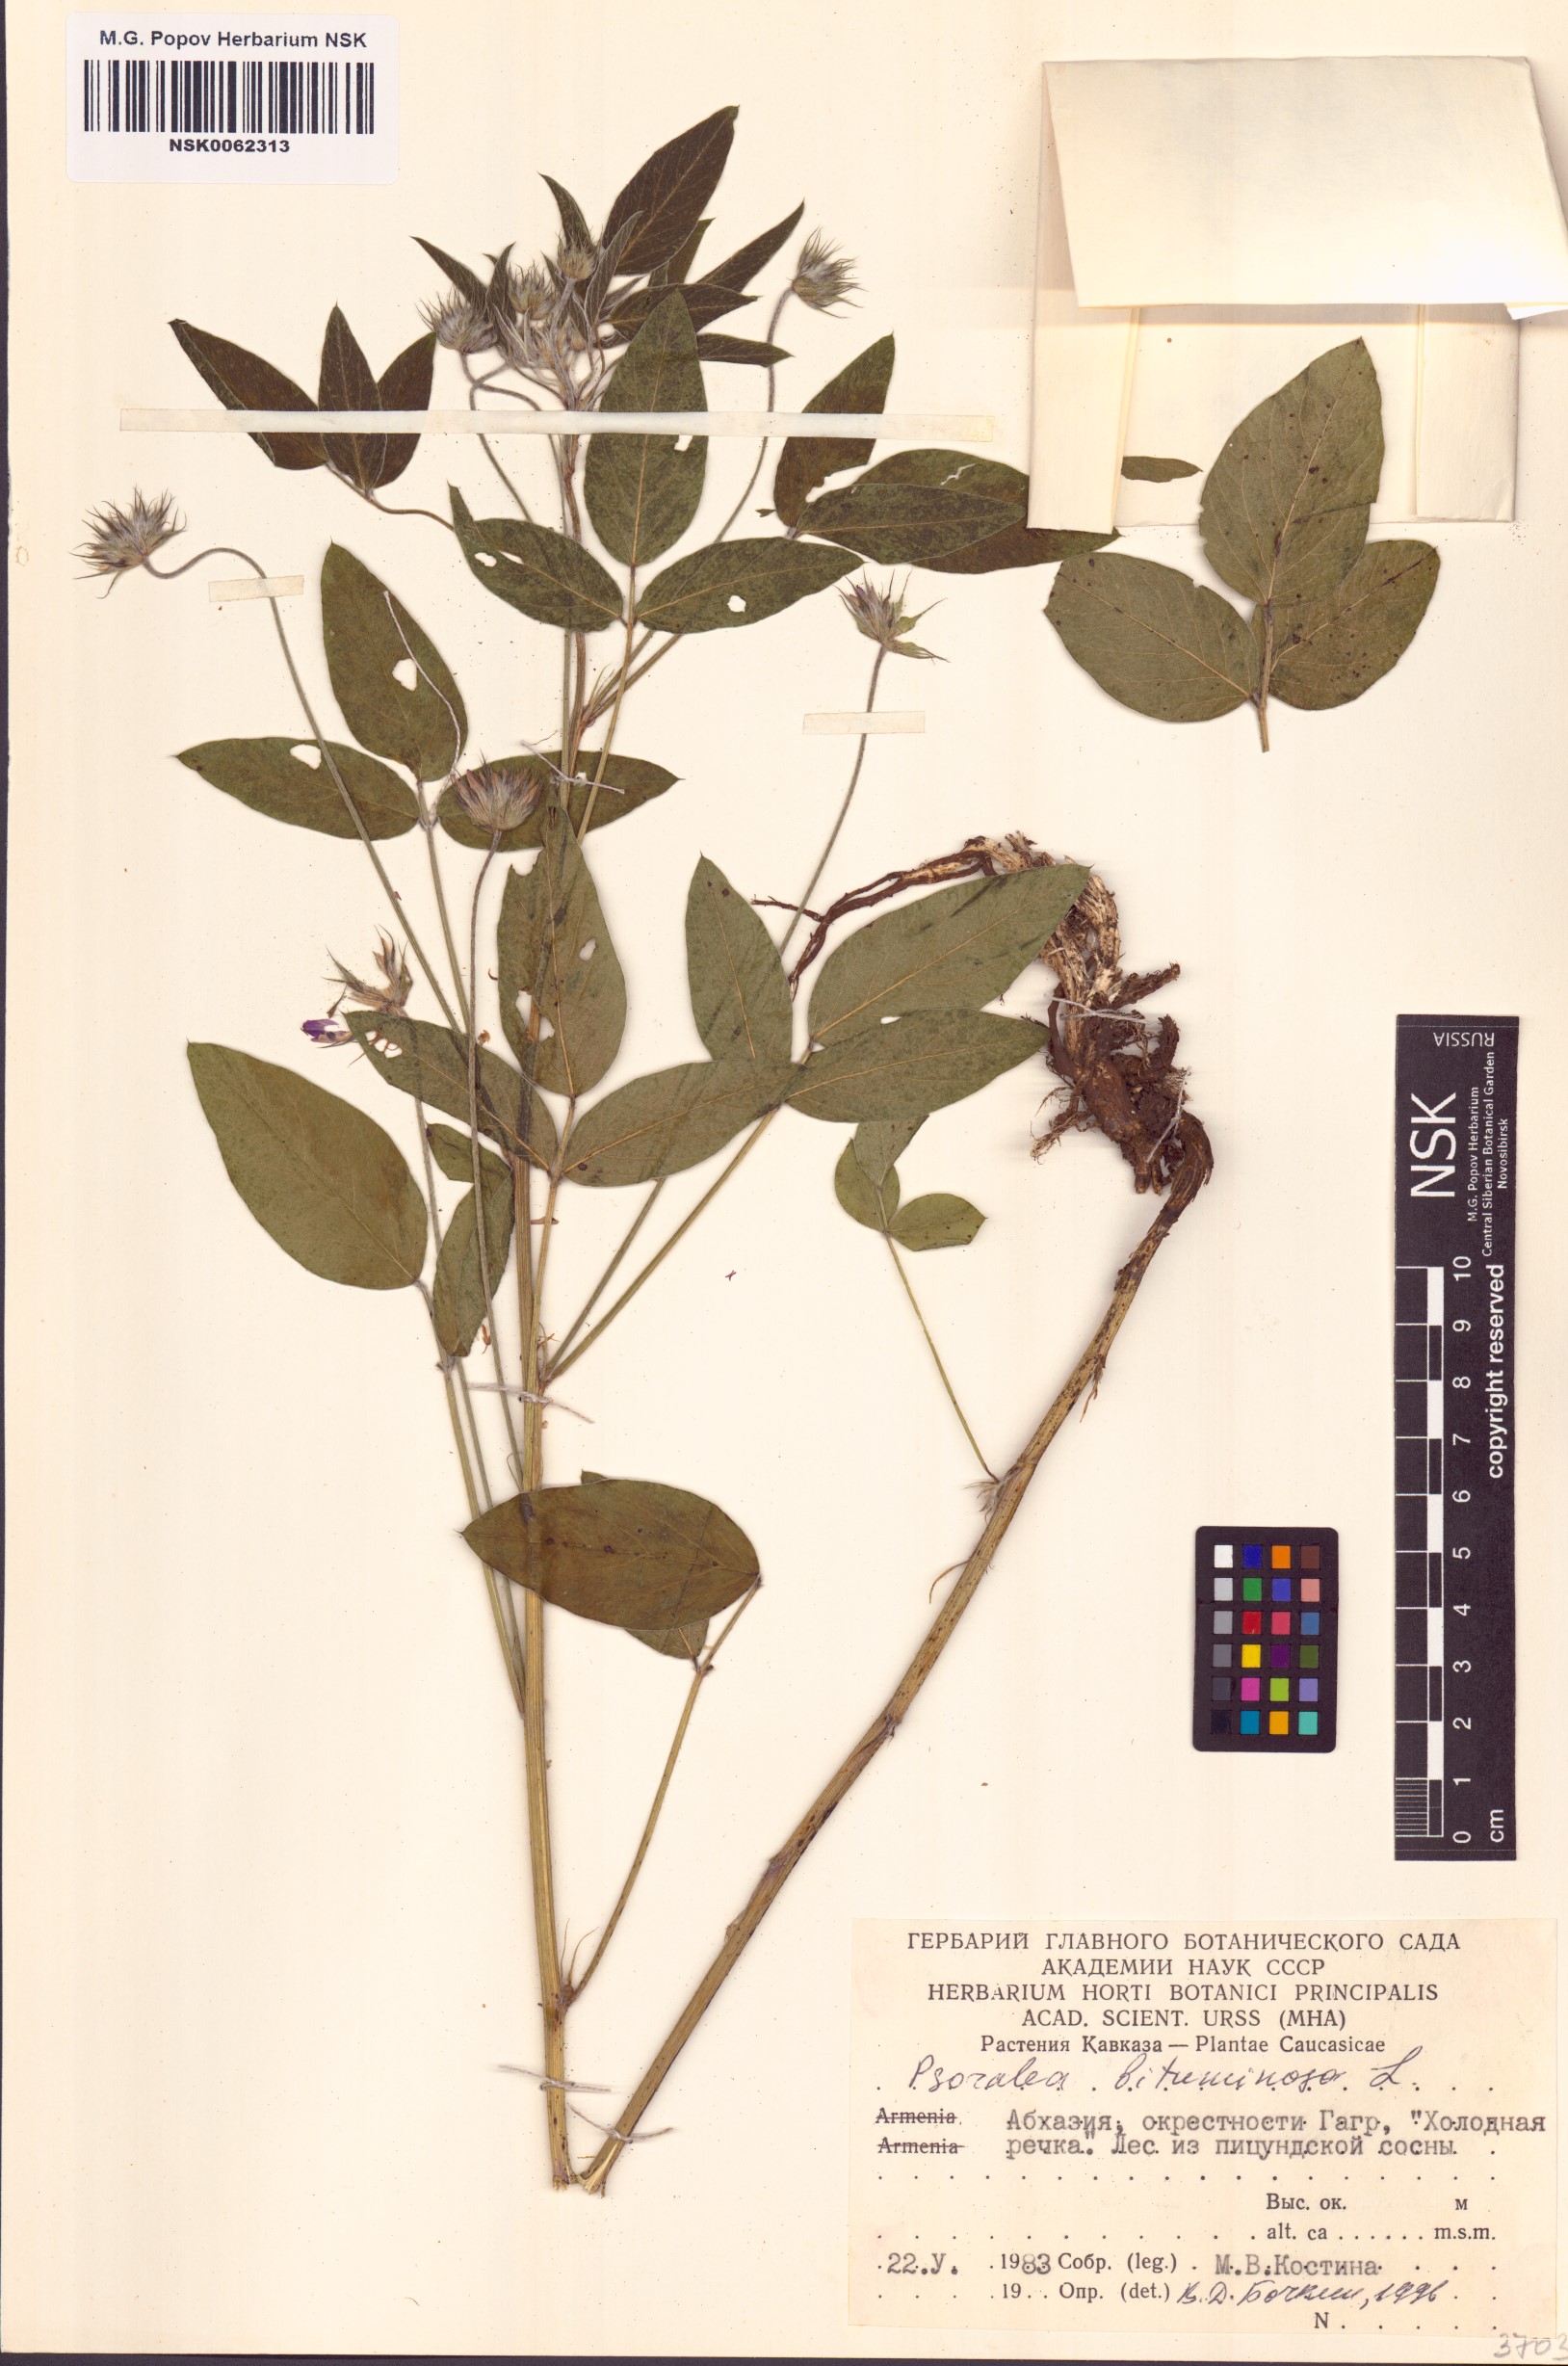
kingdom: Plantae
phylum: Tracheophyta
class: Magnoliopsida
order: Fabales
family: Fabaceae
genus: Bituminaria
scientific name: Bituminaria bituminosa
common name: Arabian pea
